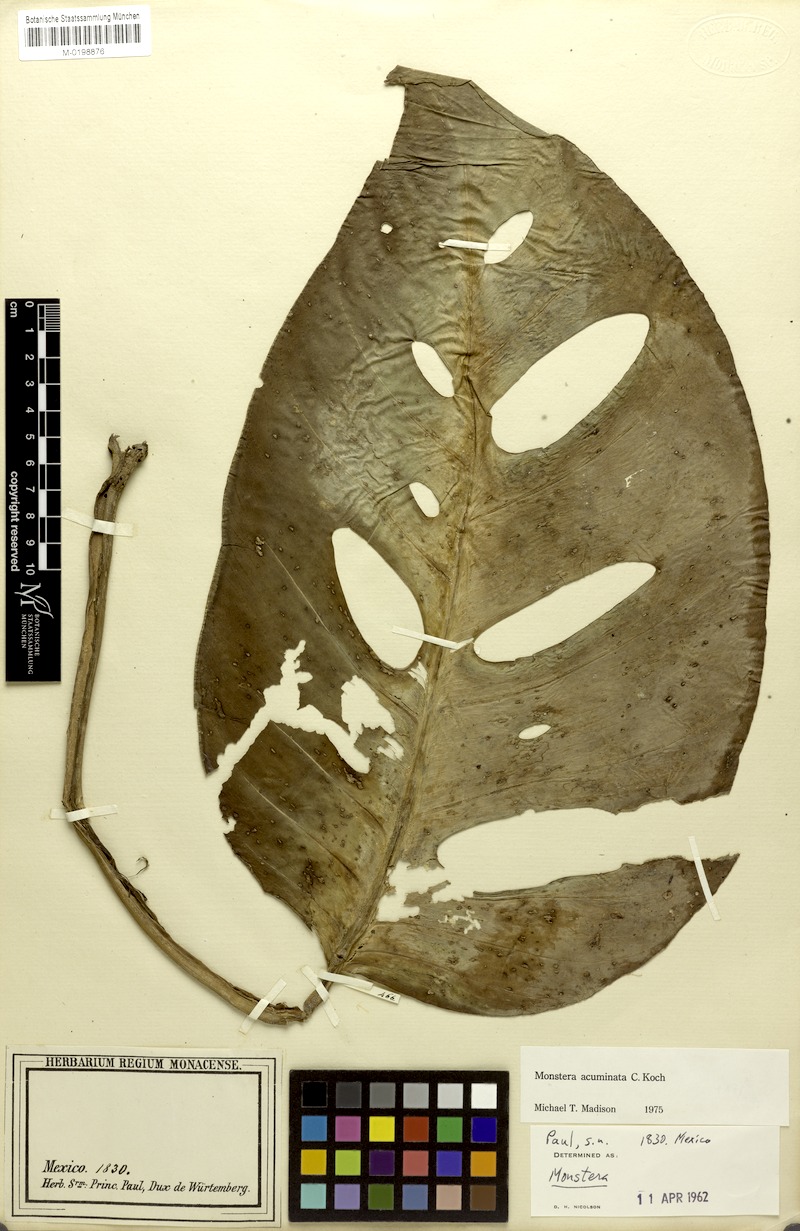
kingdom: Plantae
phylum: Tracheophyta
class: Liliopsida
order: Alismatales
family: Araceae
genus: Monstera
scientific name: Monstera acuminata
